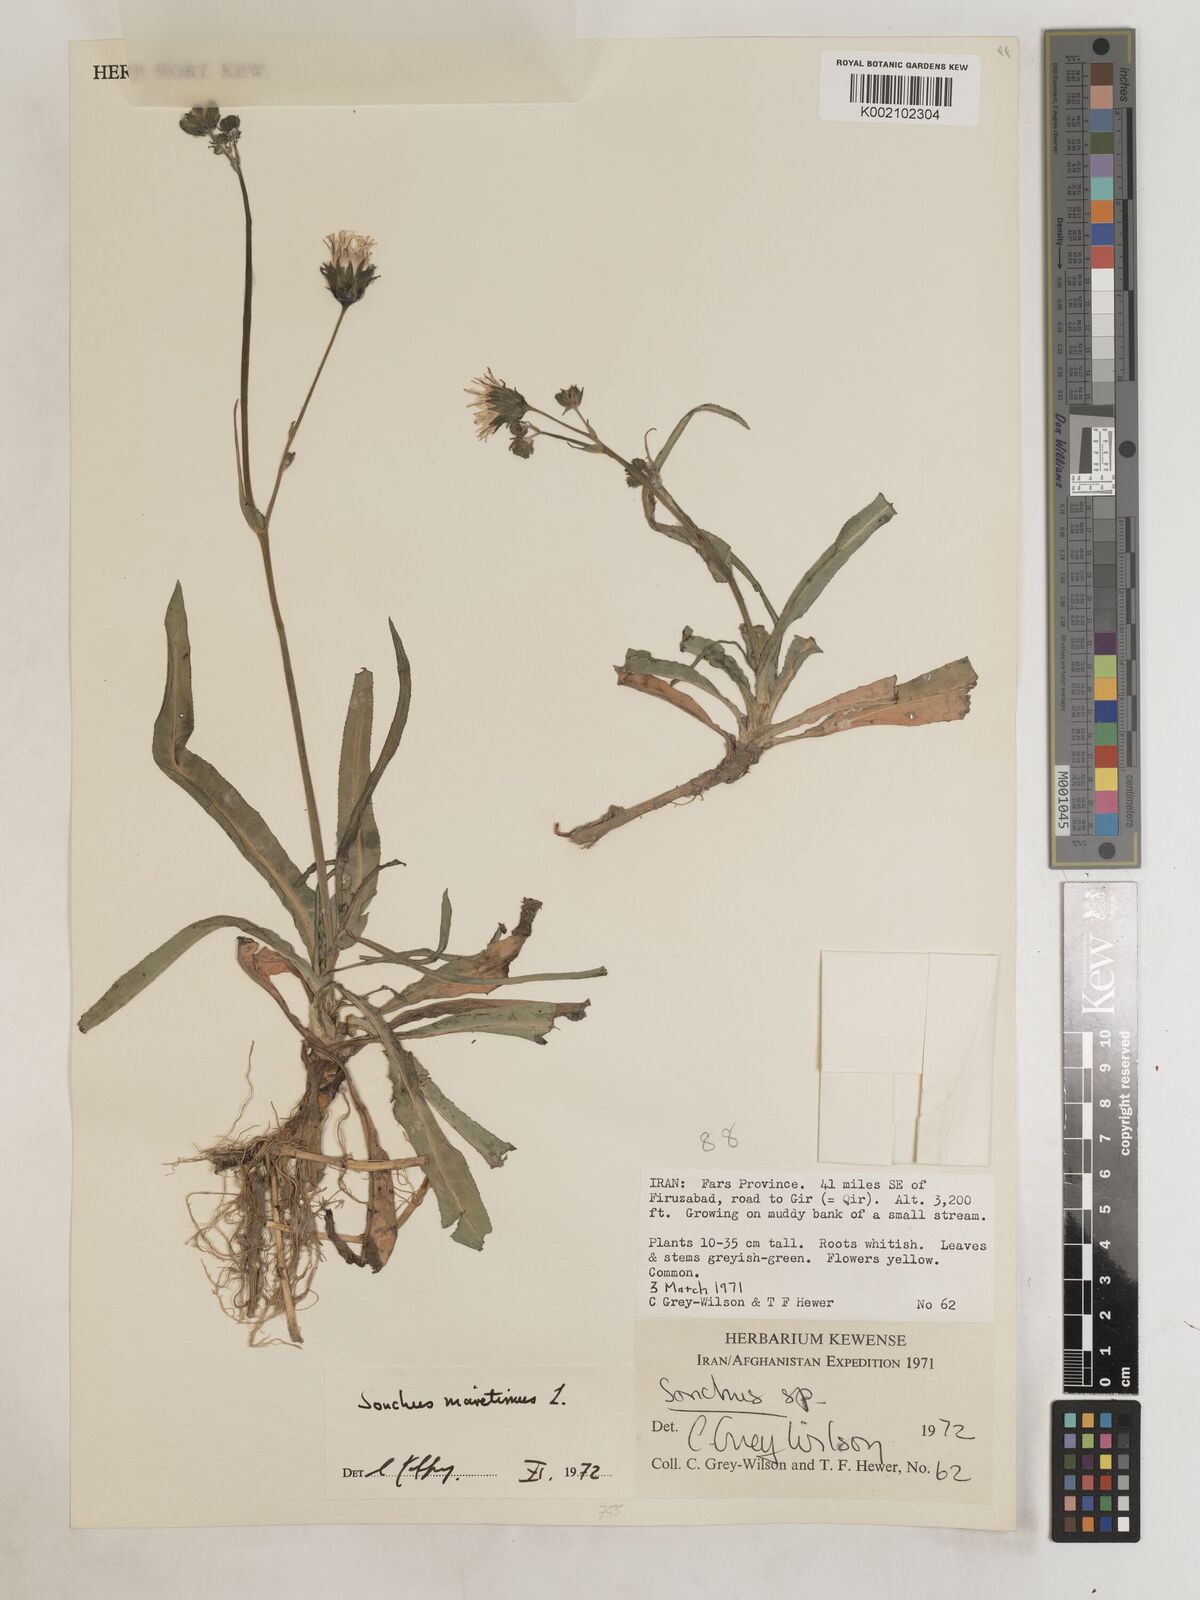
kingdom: Plantae
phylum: Tracheophyta
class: Magnoliopsida
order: Asterales
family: Asteraceae
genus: Sonchus
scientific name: Sonchus maritimus
